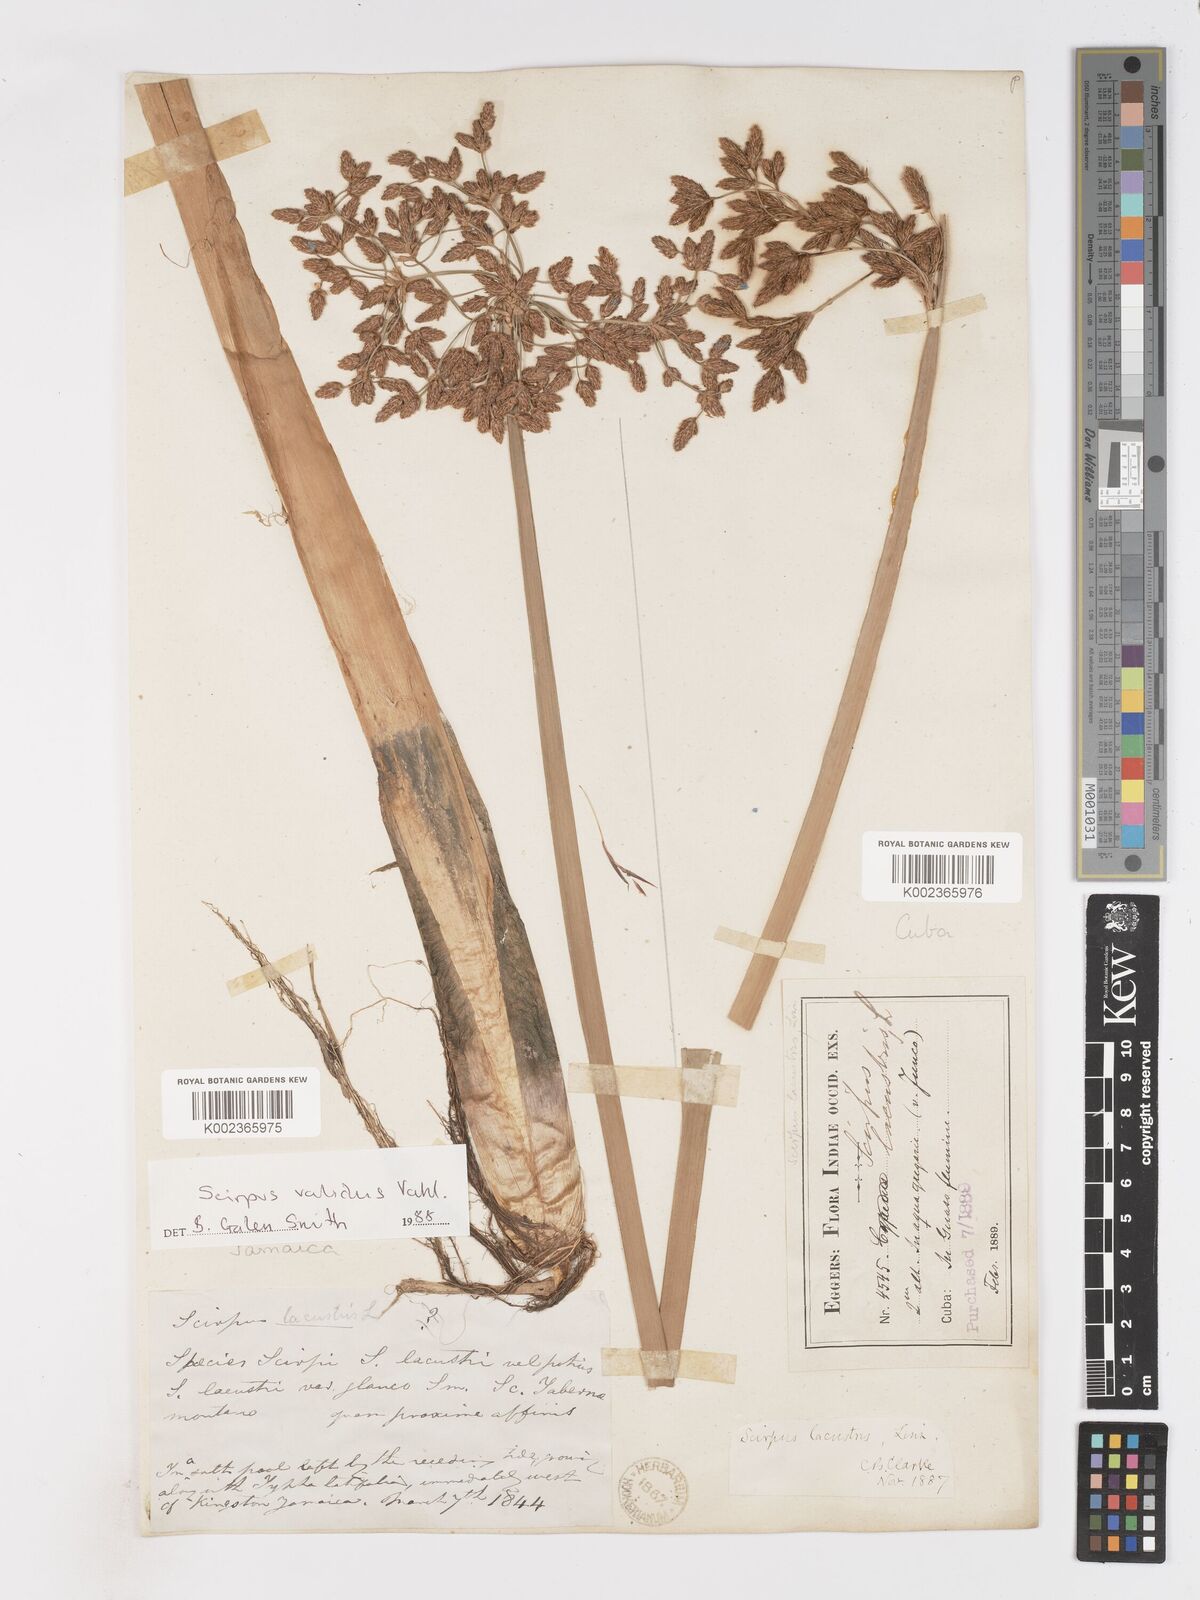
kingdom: Plantae
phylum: Tracheophyta
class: Liliopsida
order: Poales
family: Cyperaceae
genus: Schoenoplectus
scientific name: Schoenoplectus lacustris
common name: Common club-rush
